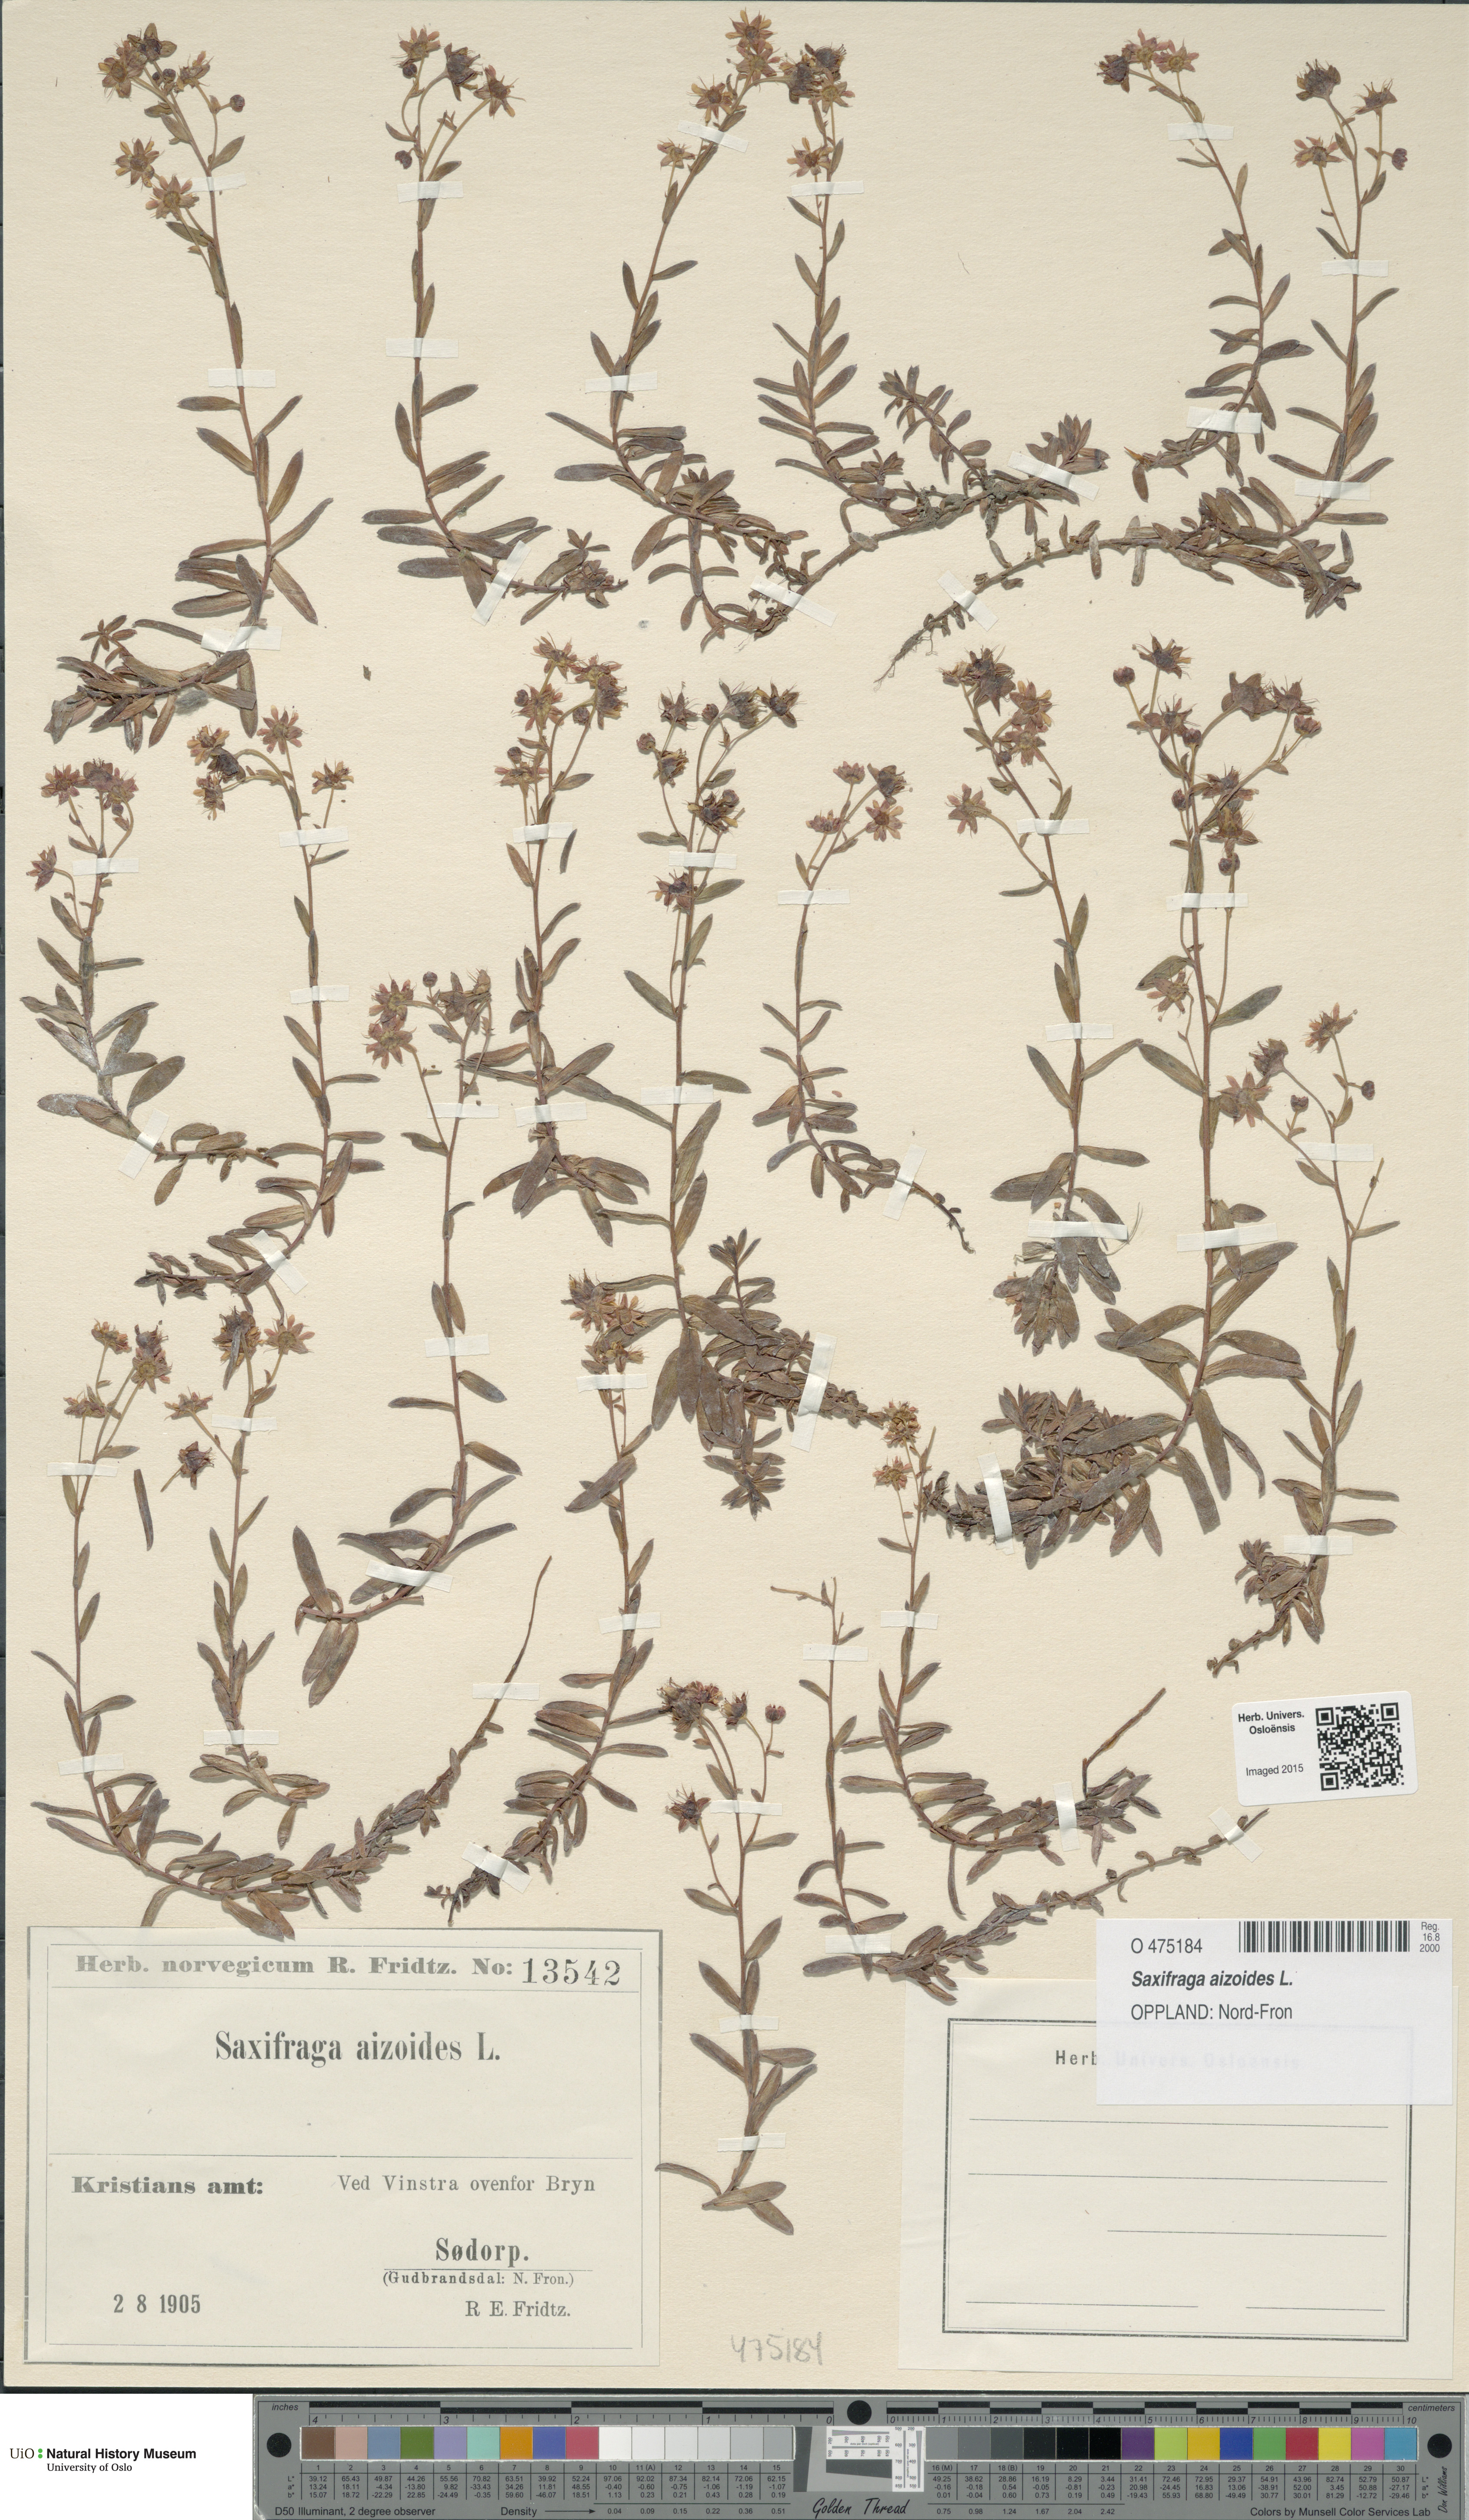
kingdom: Plantae
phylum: Tracheophyta
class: Magnoliopsida
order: Saxifragales
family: Saxifragaceae
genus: Saxifraga
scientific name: Saxifraga aizoides
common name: Yellow mountain saxifrage
